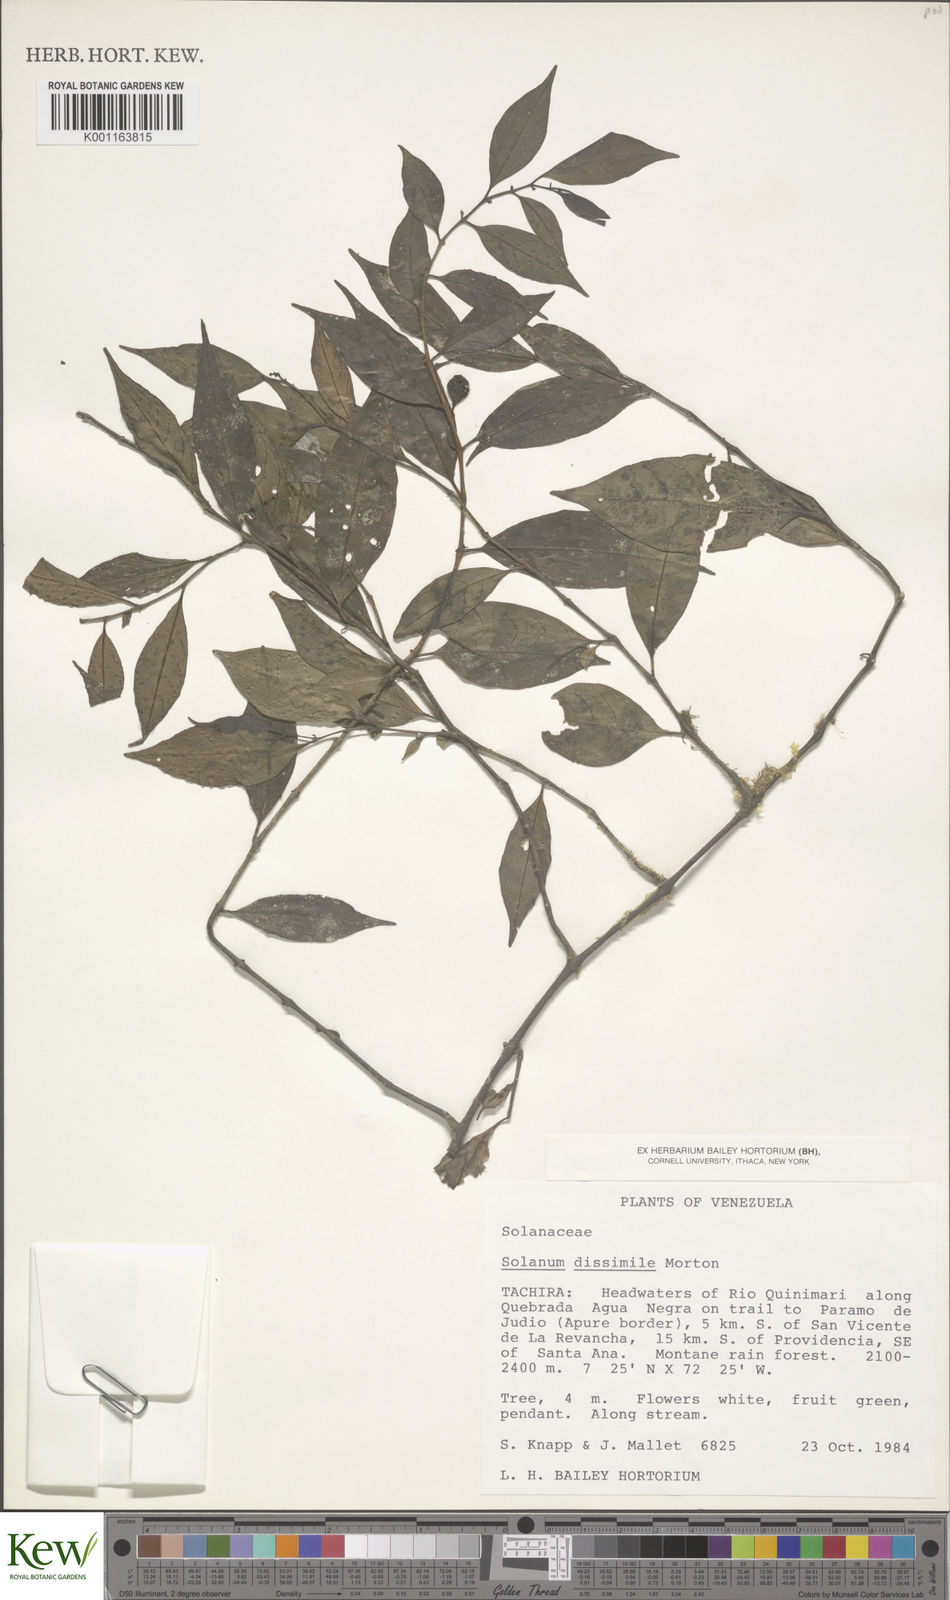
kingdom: Plantae
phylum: Tracheophyta
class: Magnoliopsida
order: Solanales
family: Solanaceae
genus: Solanum
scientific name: Solanum dissimile
